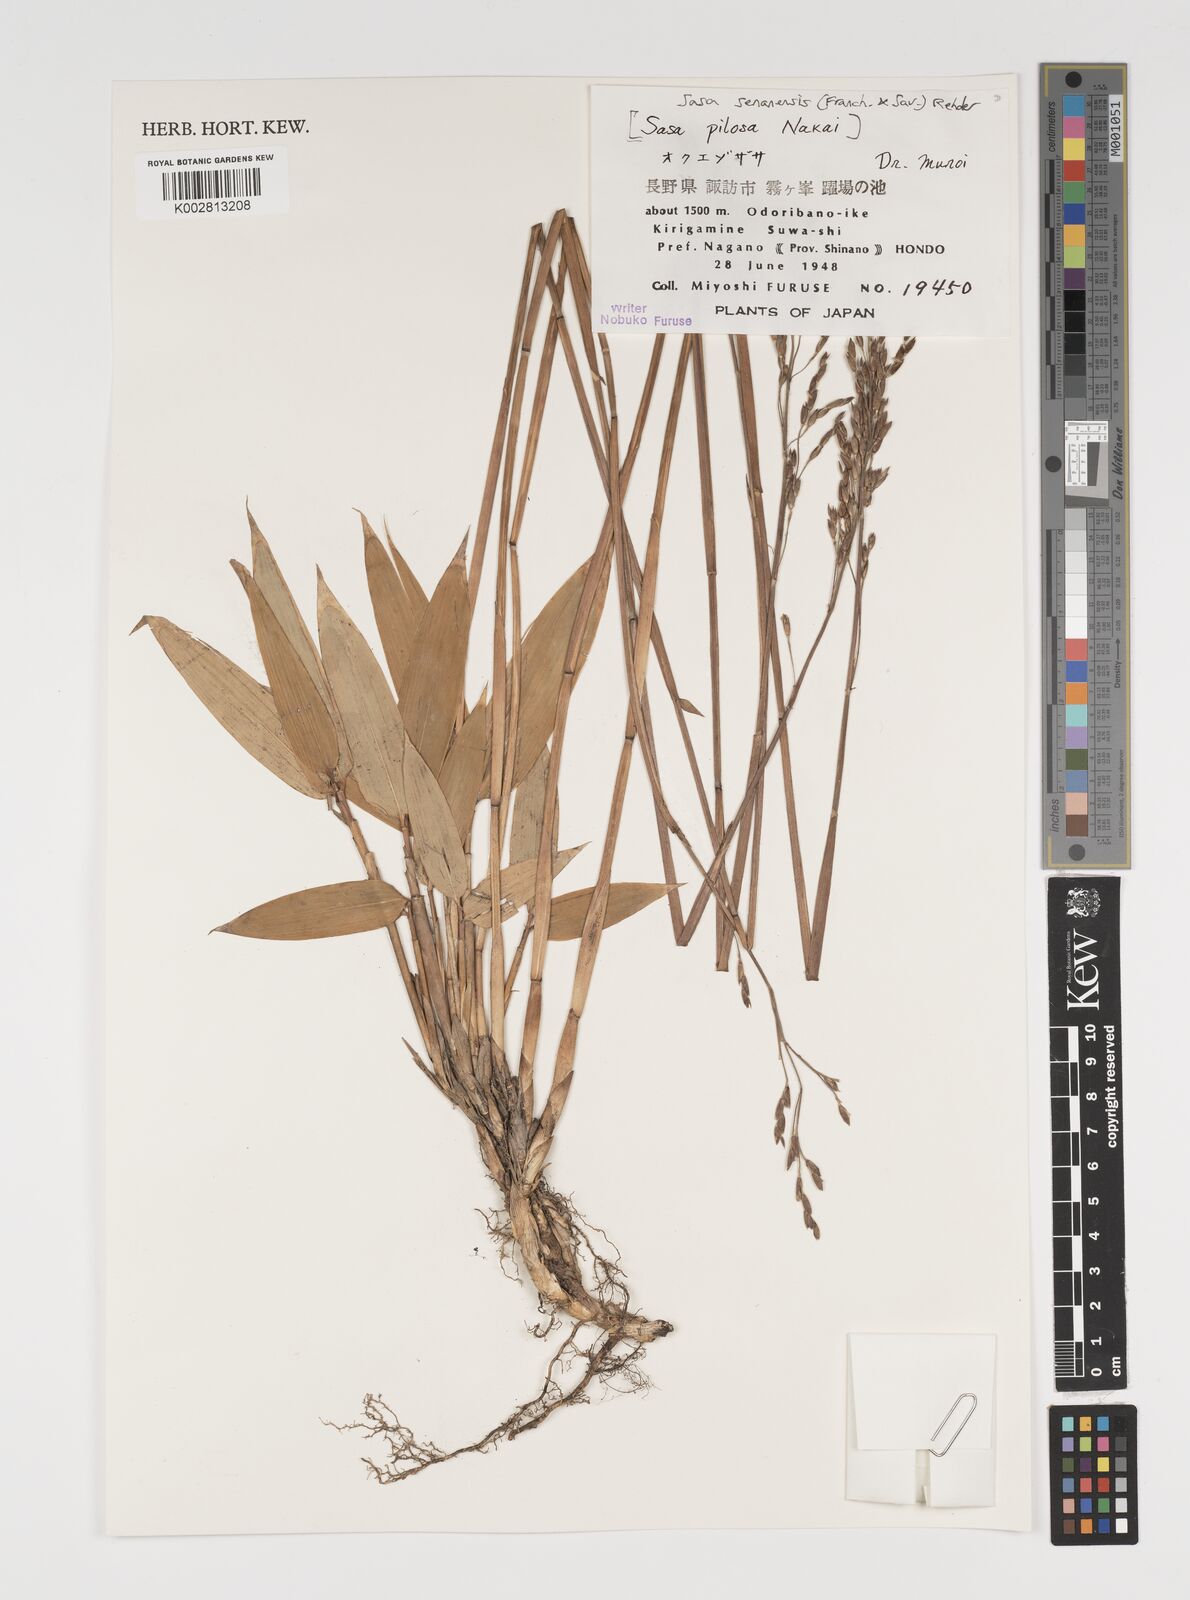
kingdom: Plantae
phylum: Tracheophyta
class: Liliopsida
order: Poales
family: Poaceae
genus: Sasa
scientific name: Sasa senanensis
